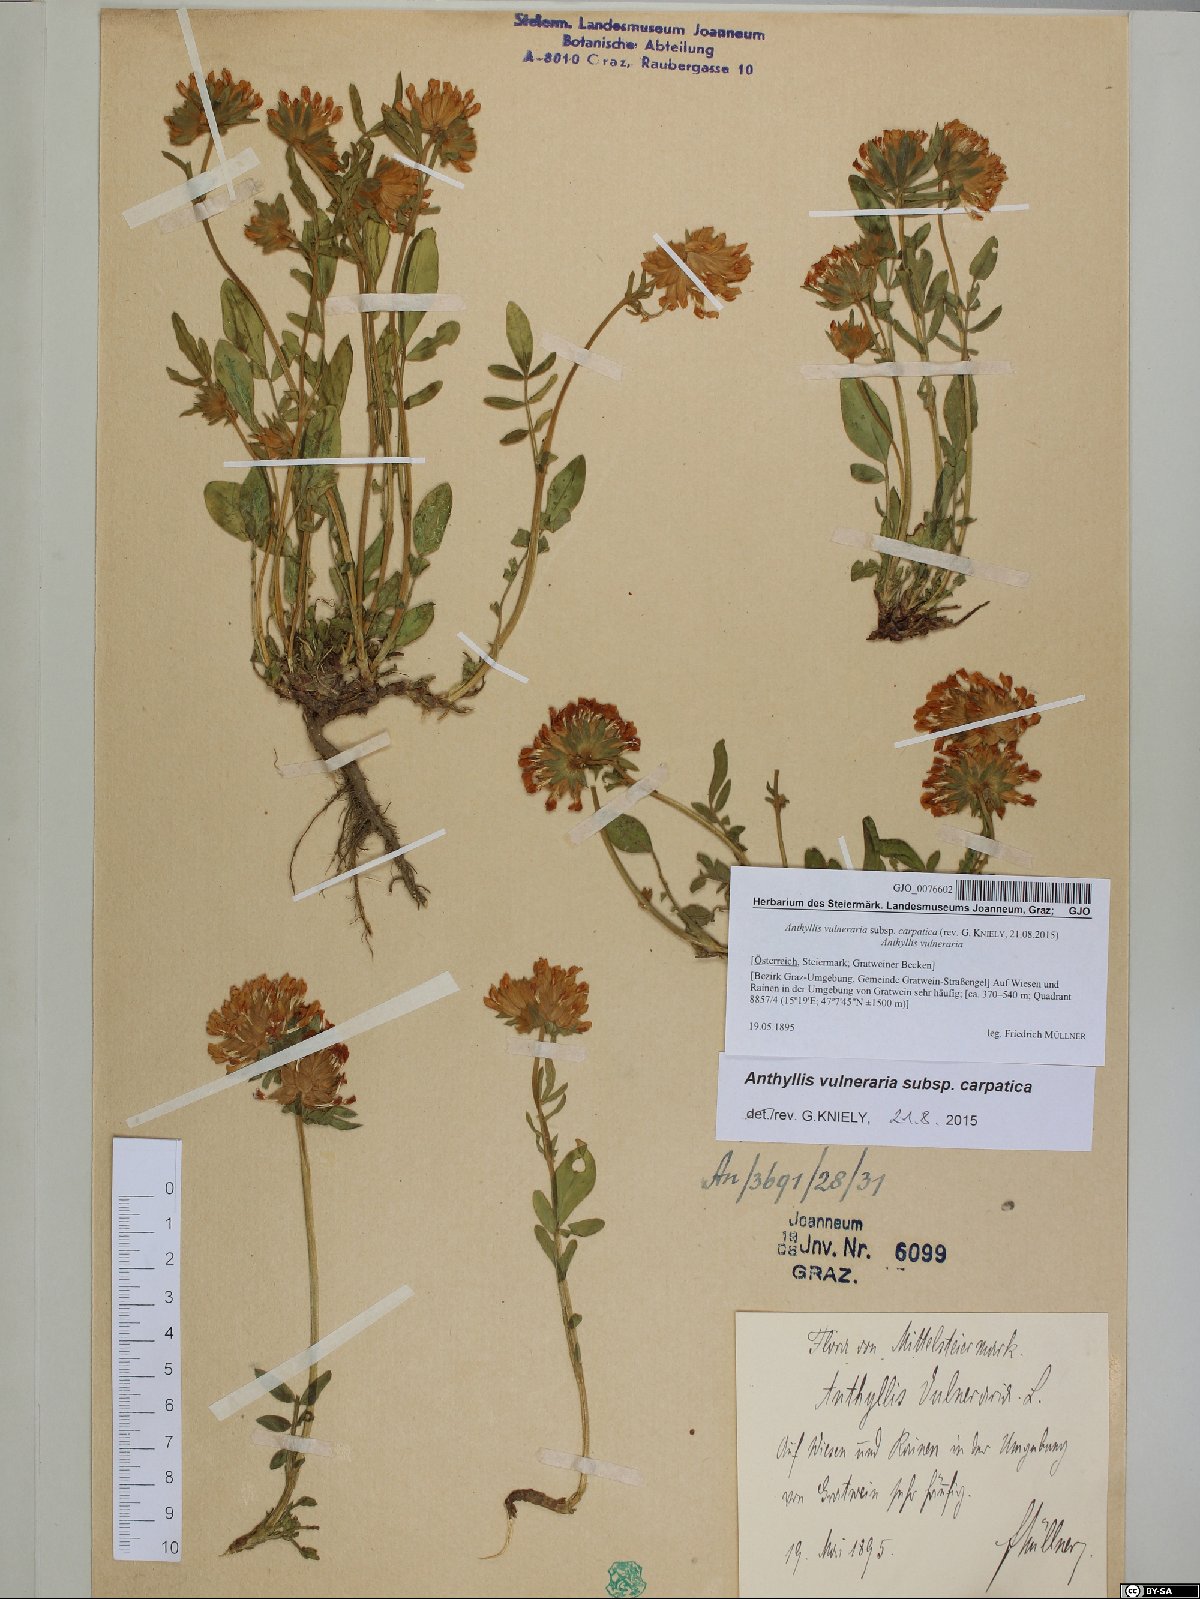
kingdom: Plantae
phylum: Tracheophyta
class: Magnoliopsida
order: Fabales
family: Fabaceae
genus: Anthyllis
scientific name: Anthyllis vulneraria
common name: Kidney vetch
